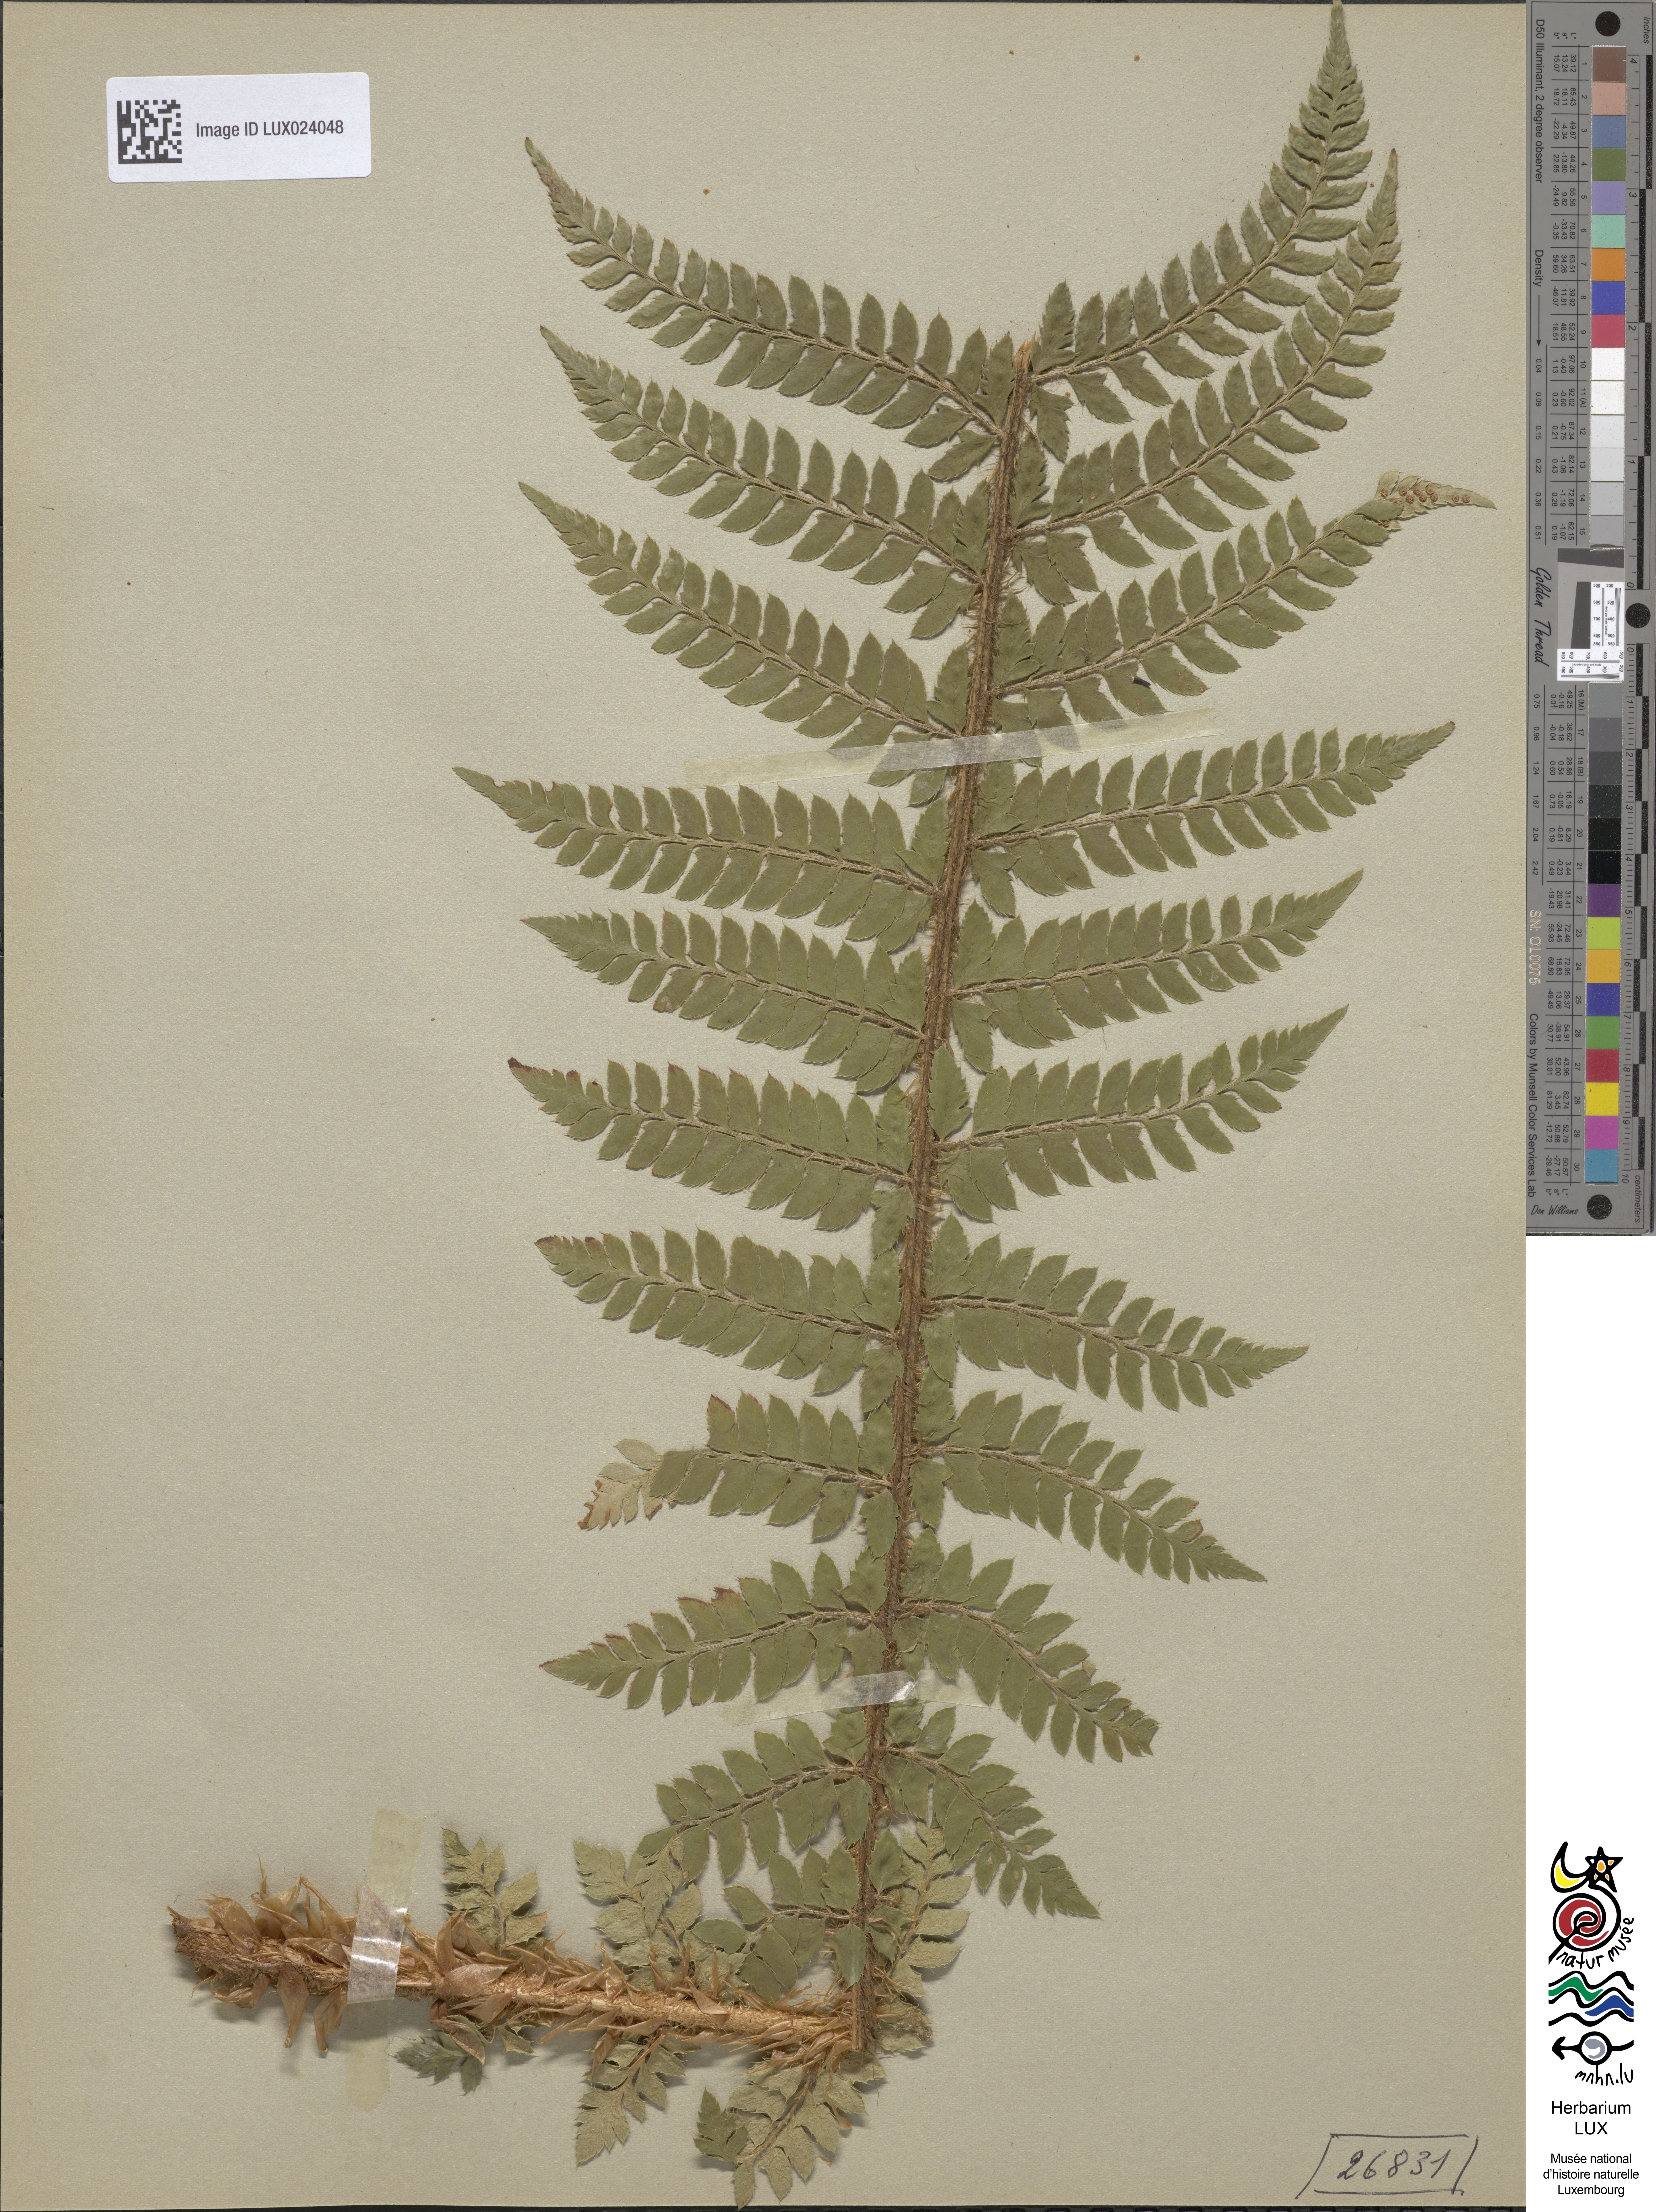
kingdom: Plantae
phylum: Tracheophyta
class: Polypodiopsida
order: Polypodiales
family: Dryopteridaceae
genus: Polystichum
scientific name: Polystichum luerssenii
